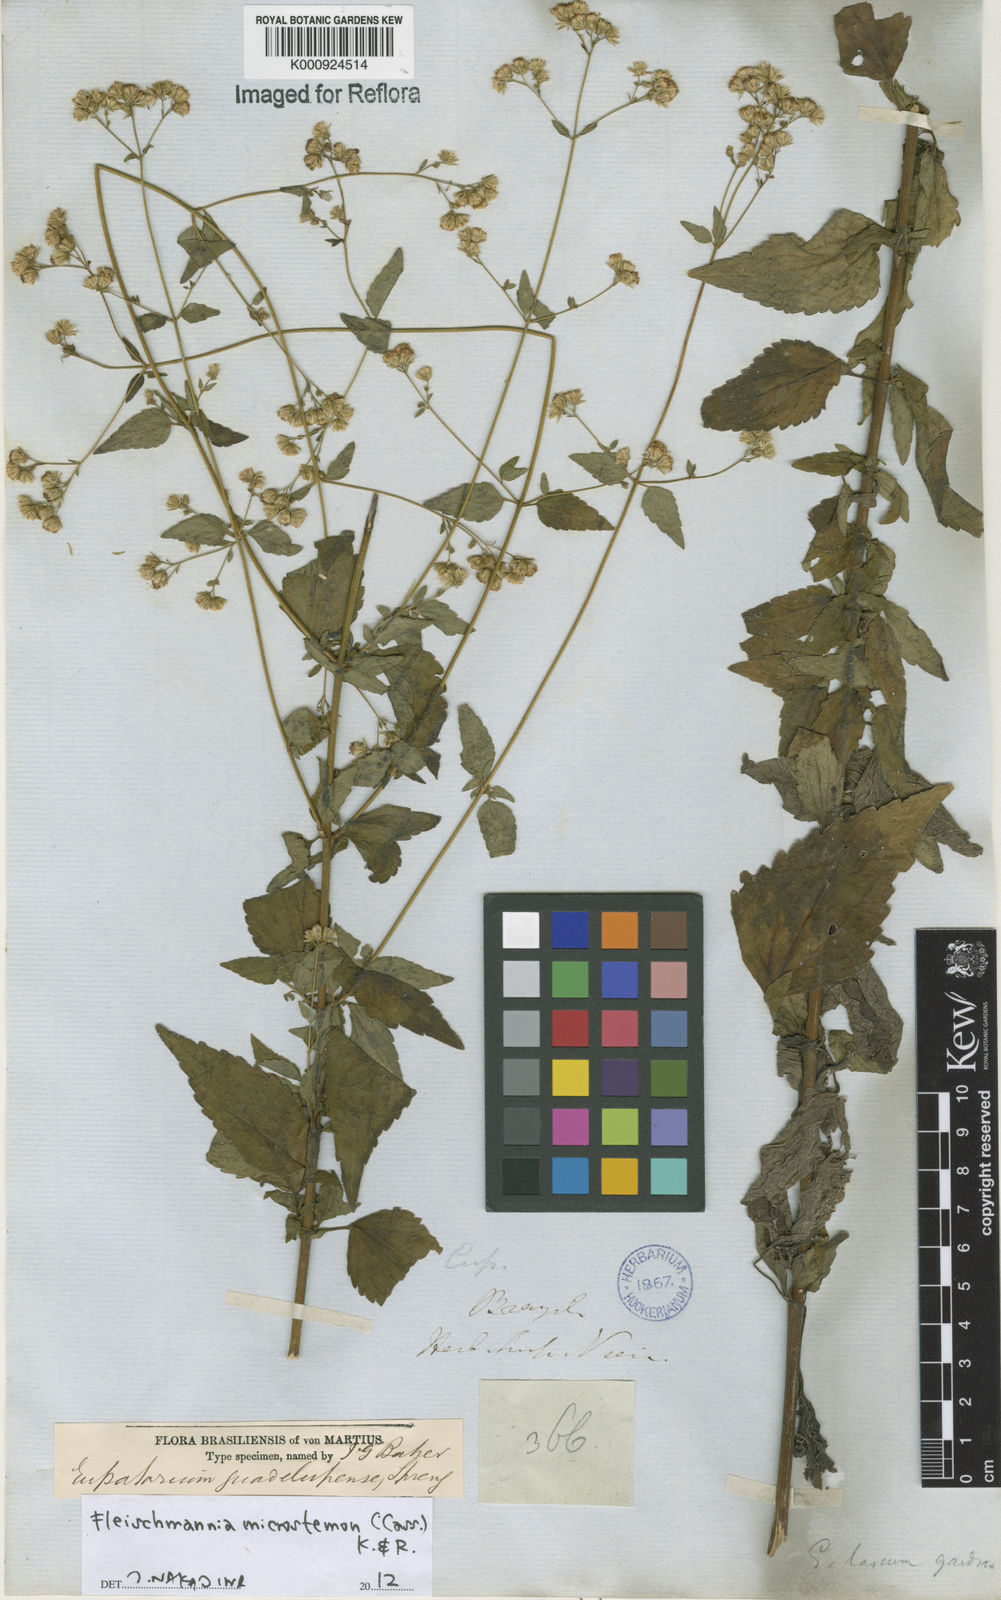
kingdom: Plantae
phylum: Tracheophyta
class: Magnoliopsida
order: Asterales
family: Asteraceae
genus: Fleischmannia
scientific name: Fleischmannia microstemon
